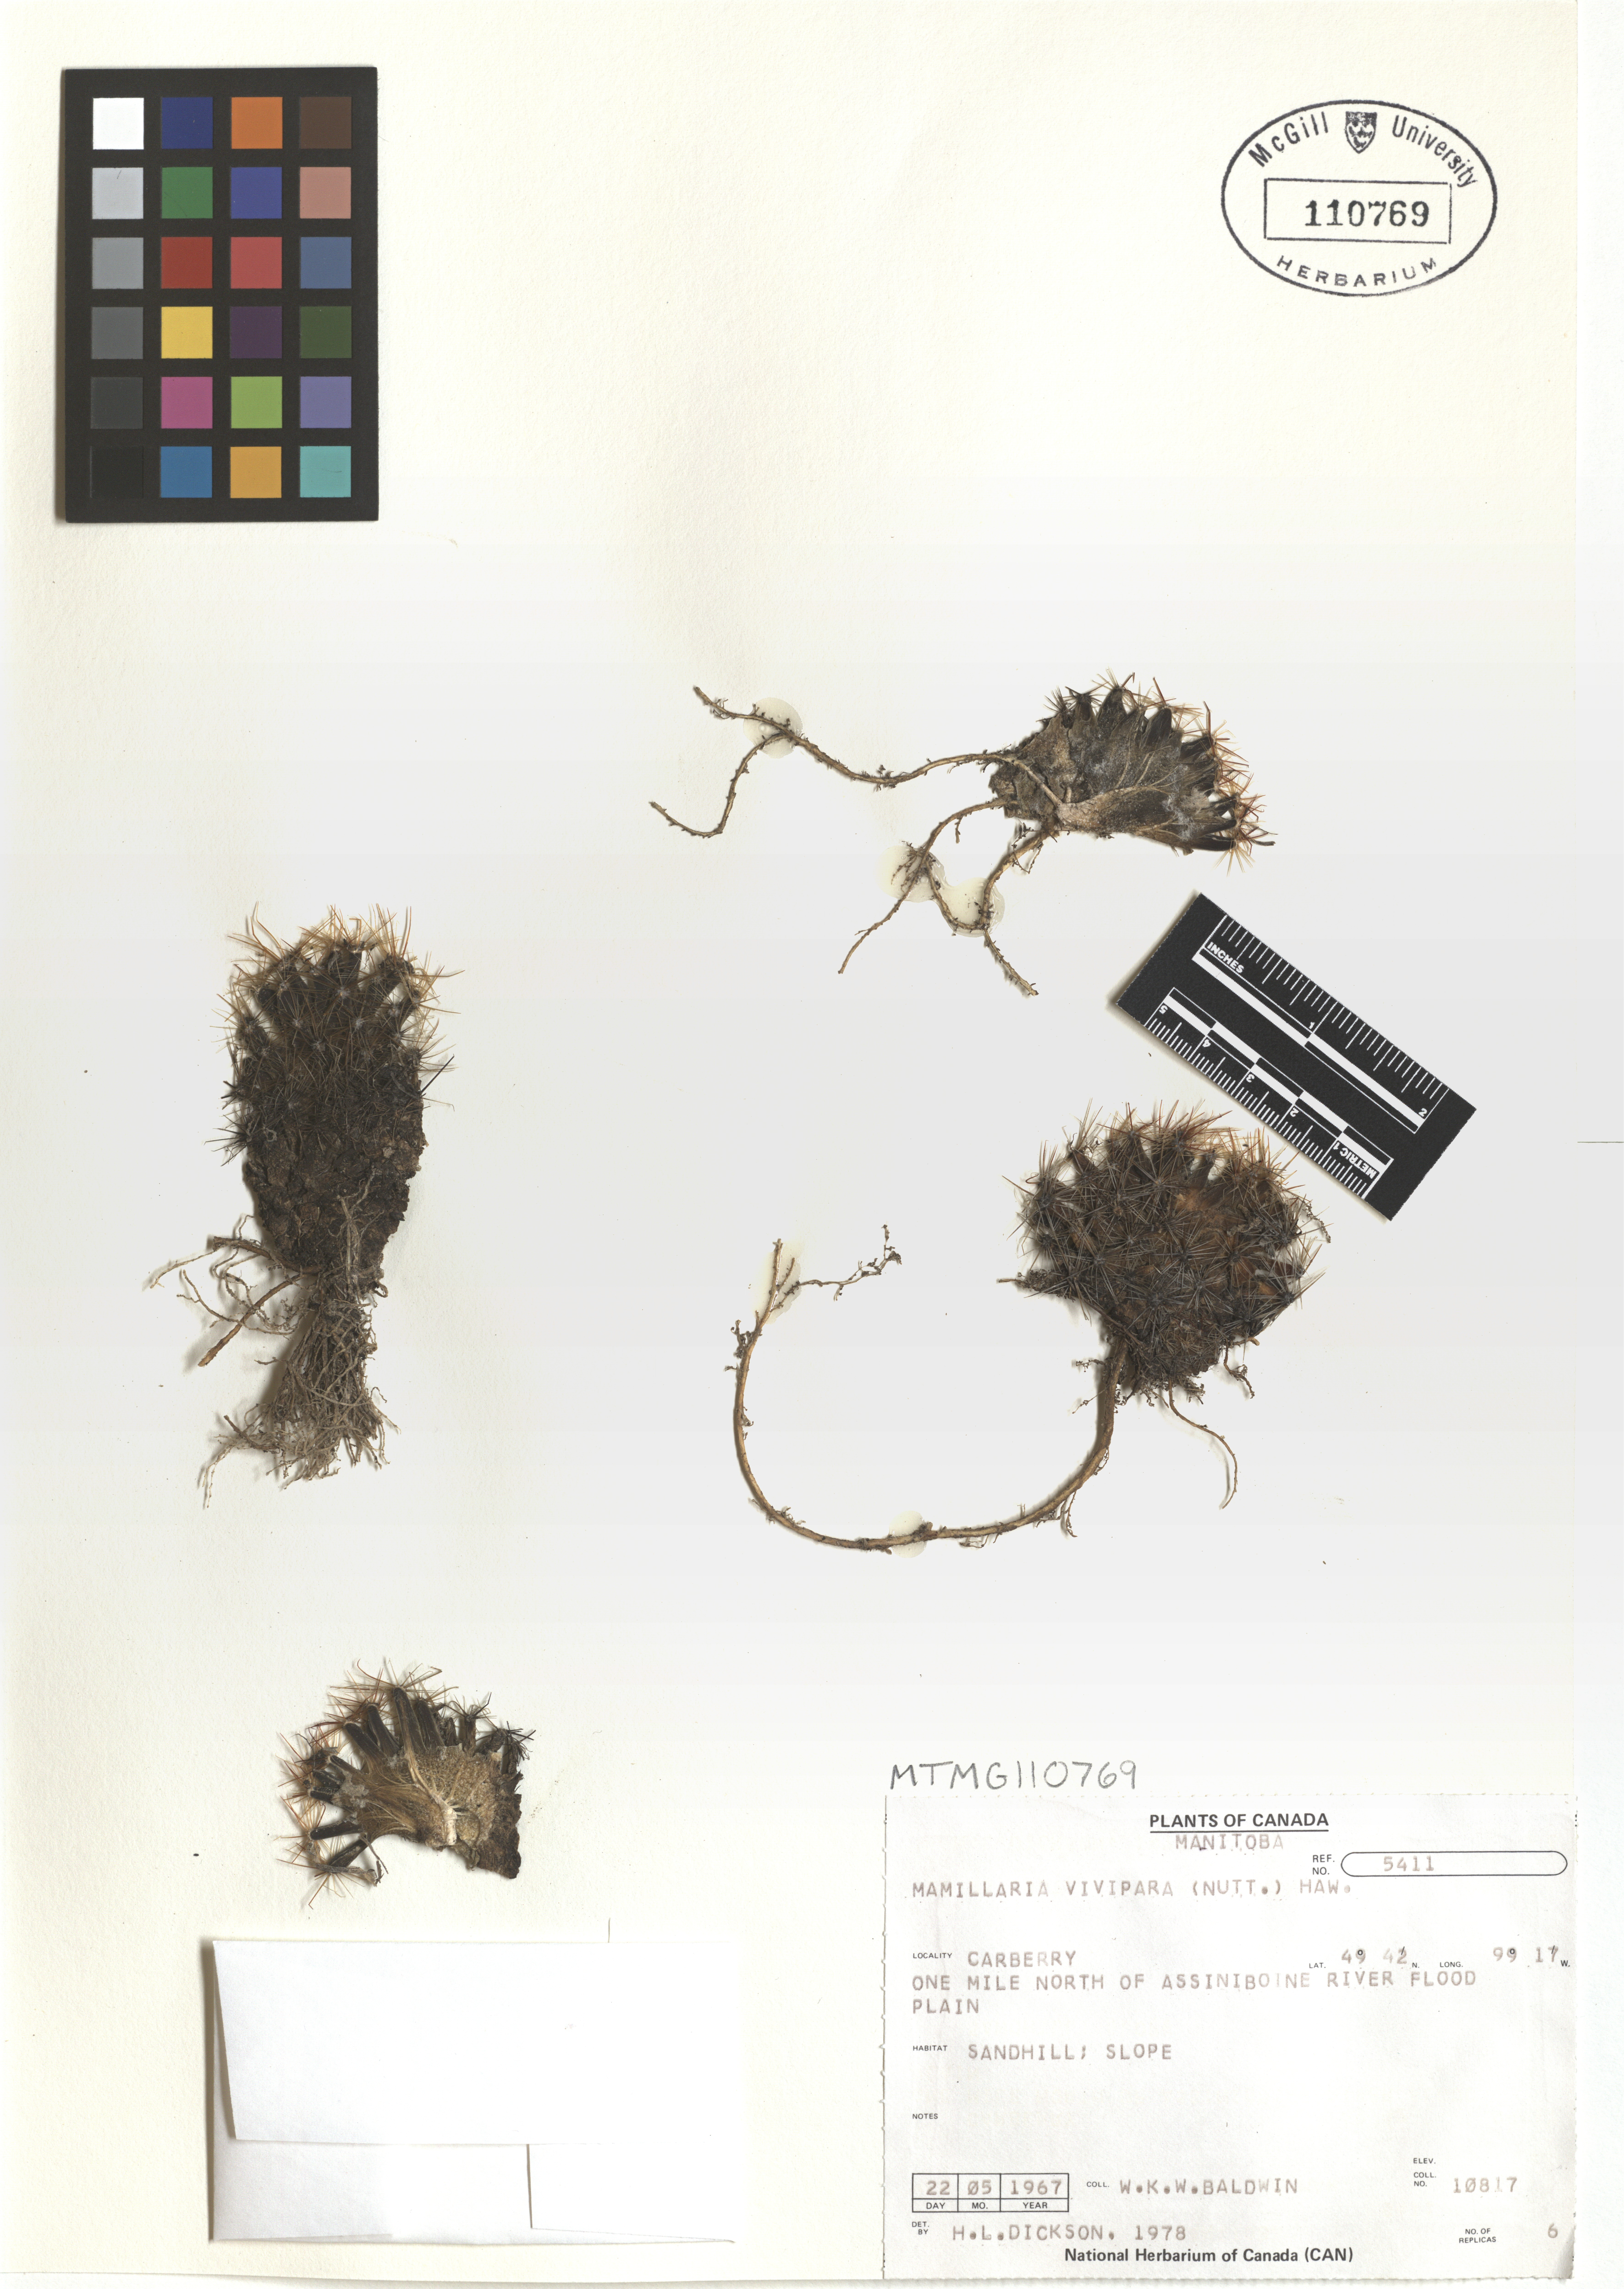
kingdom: Plantae
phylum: Tracheophyta
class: Magnoliopsida
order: Caryophyllales
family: Cactaceae
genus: Pelecyphora
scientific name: Pelecyphora vivipara
